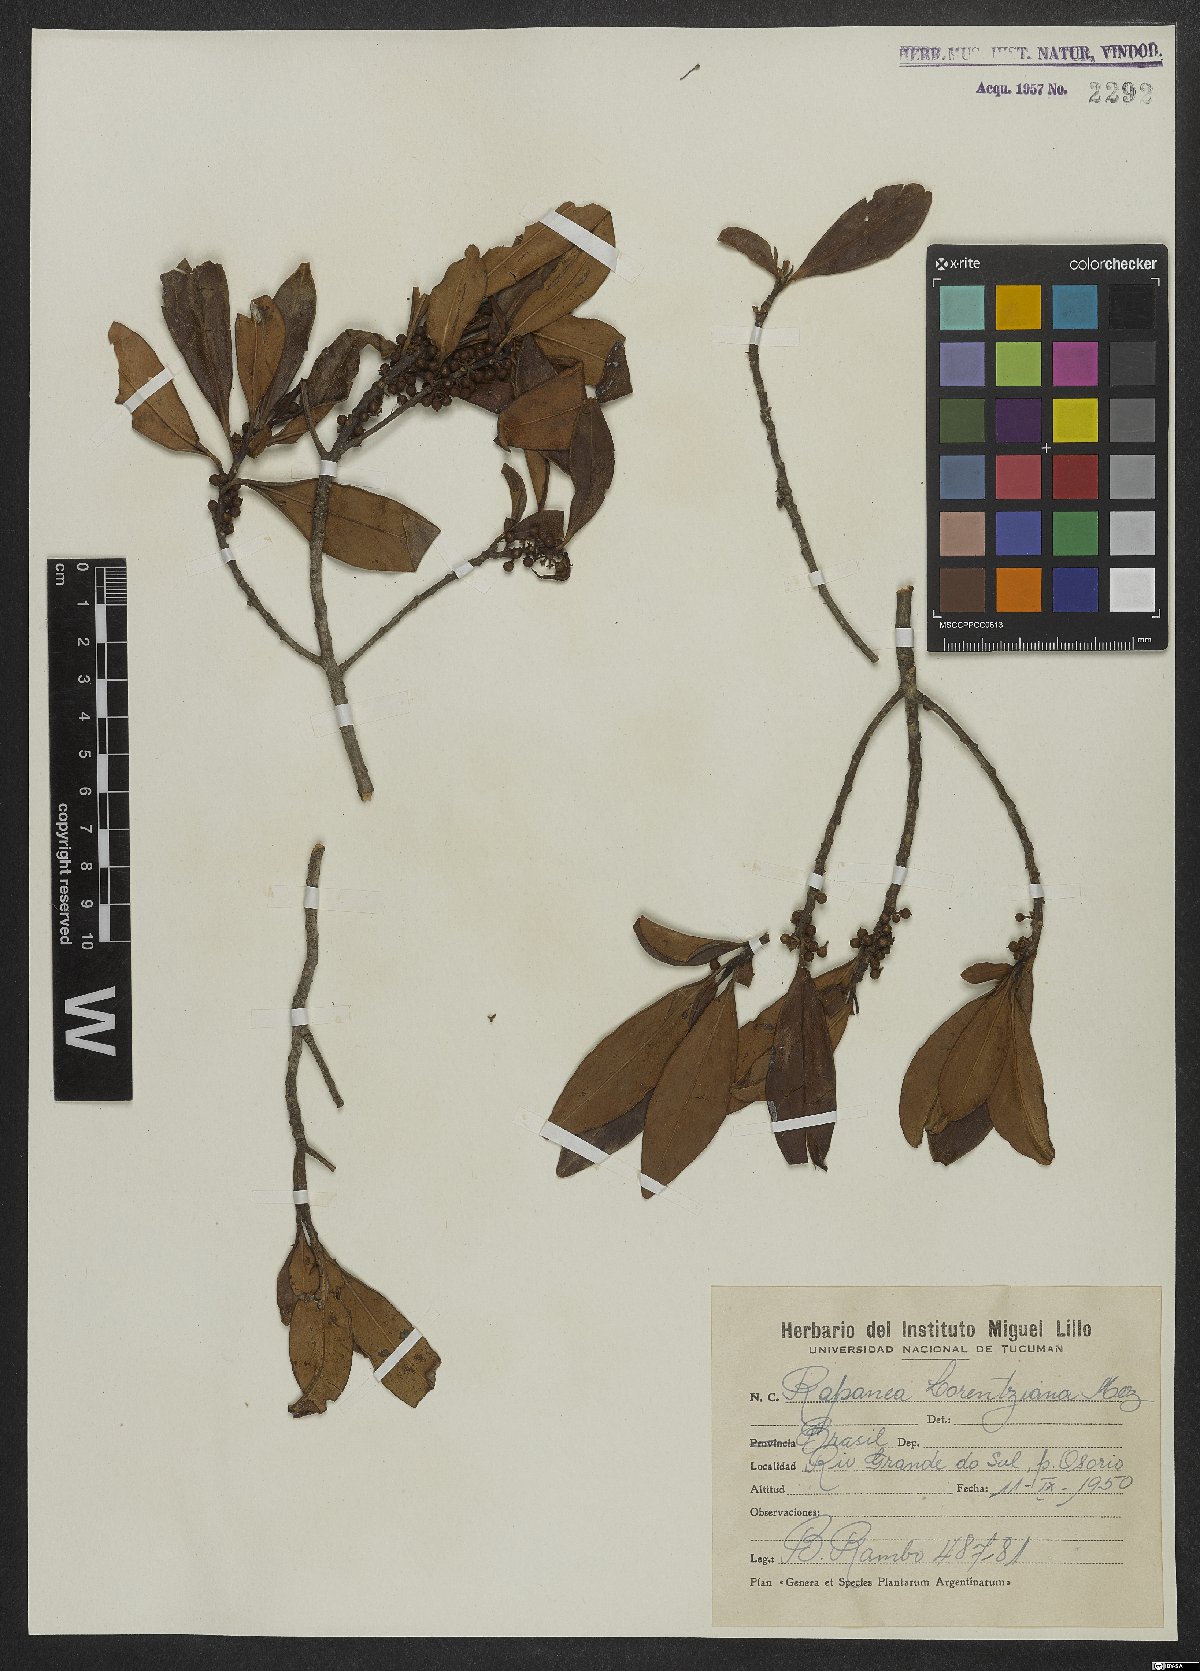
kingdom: Plantae
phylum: Tracheophyta
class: Magnoliopsida
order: Ericales
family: Primulaceae
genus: Myrsine
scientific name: Myrsine lorentziana
